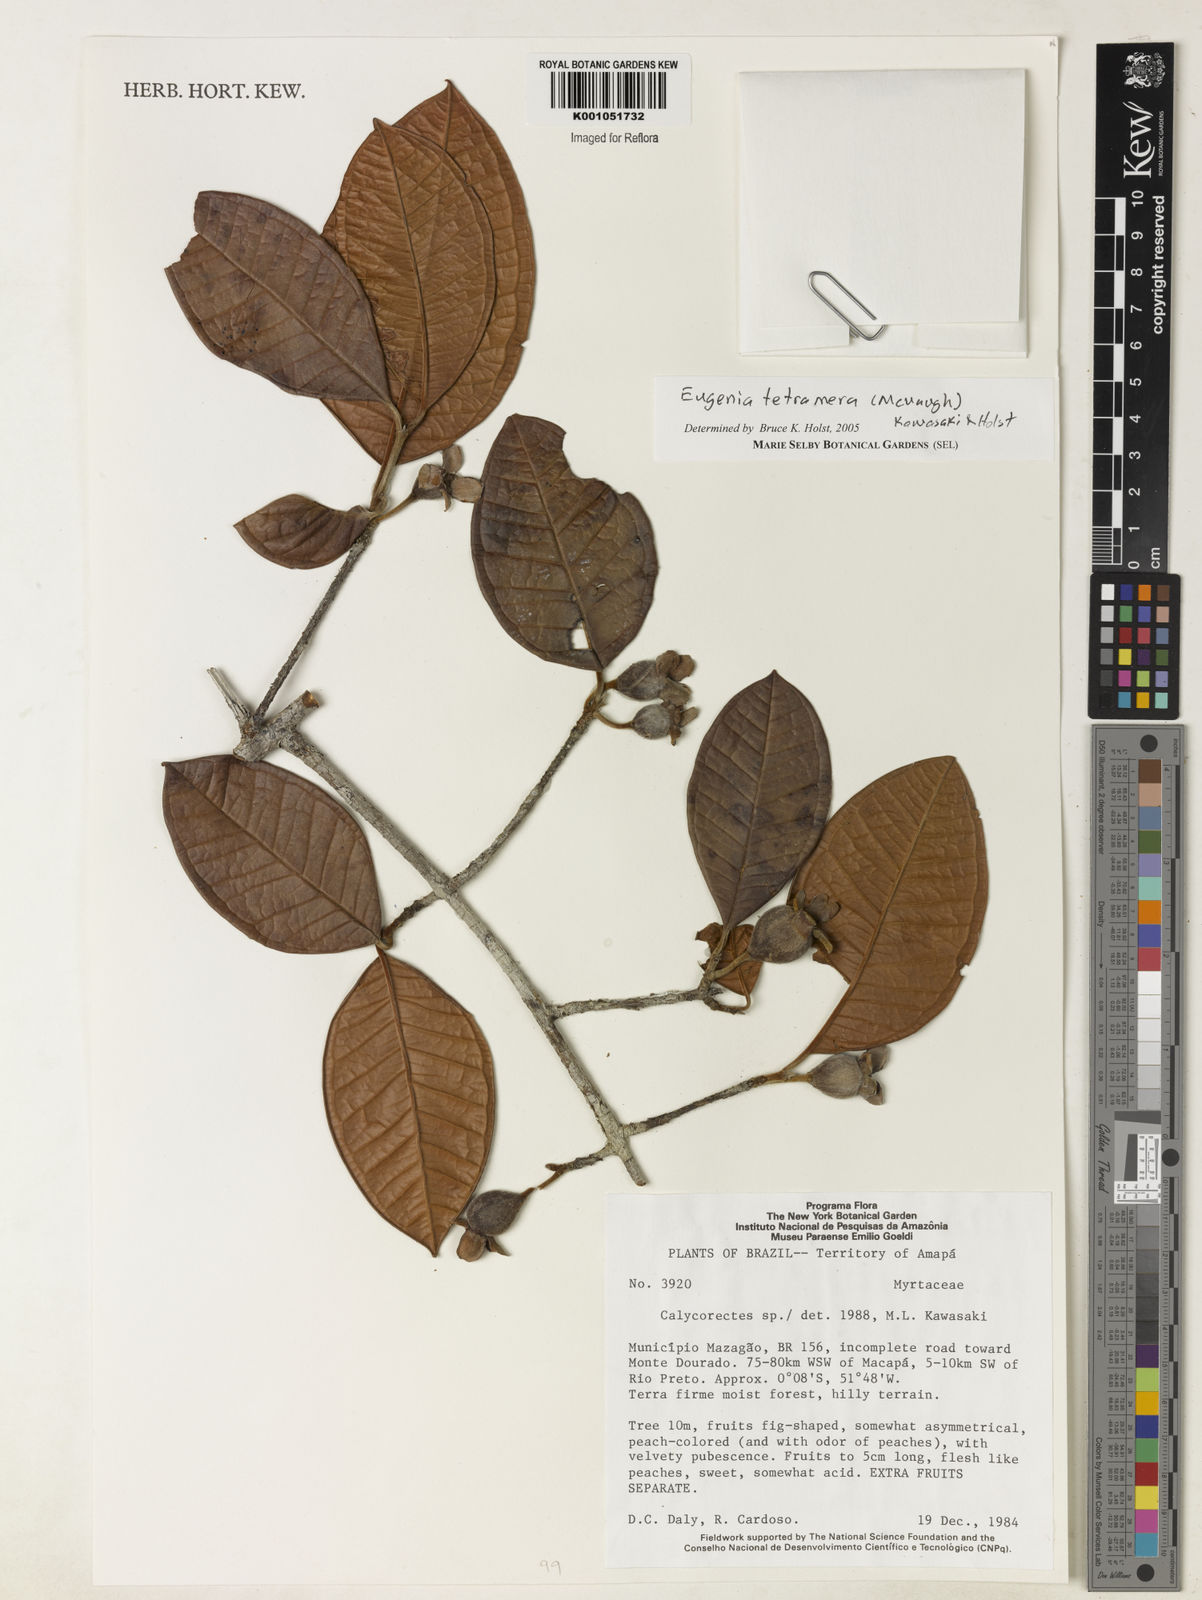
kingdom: Plantae
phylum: Tracheophyta
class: Magnoliopsida
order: Myrtales
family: Myrtaceae
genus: Eugenia
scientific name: Eugenia tetramera
